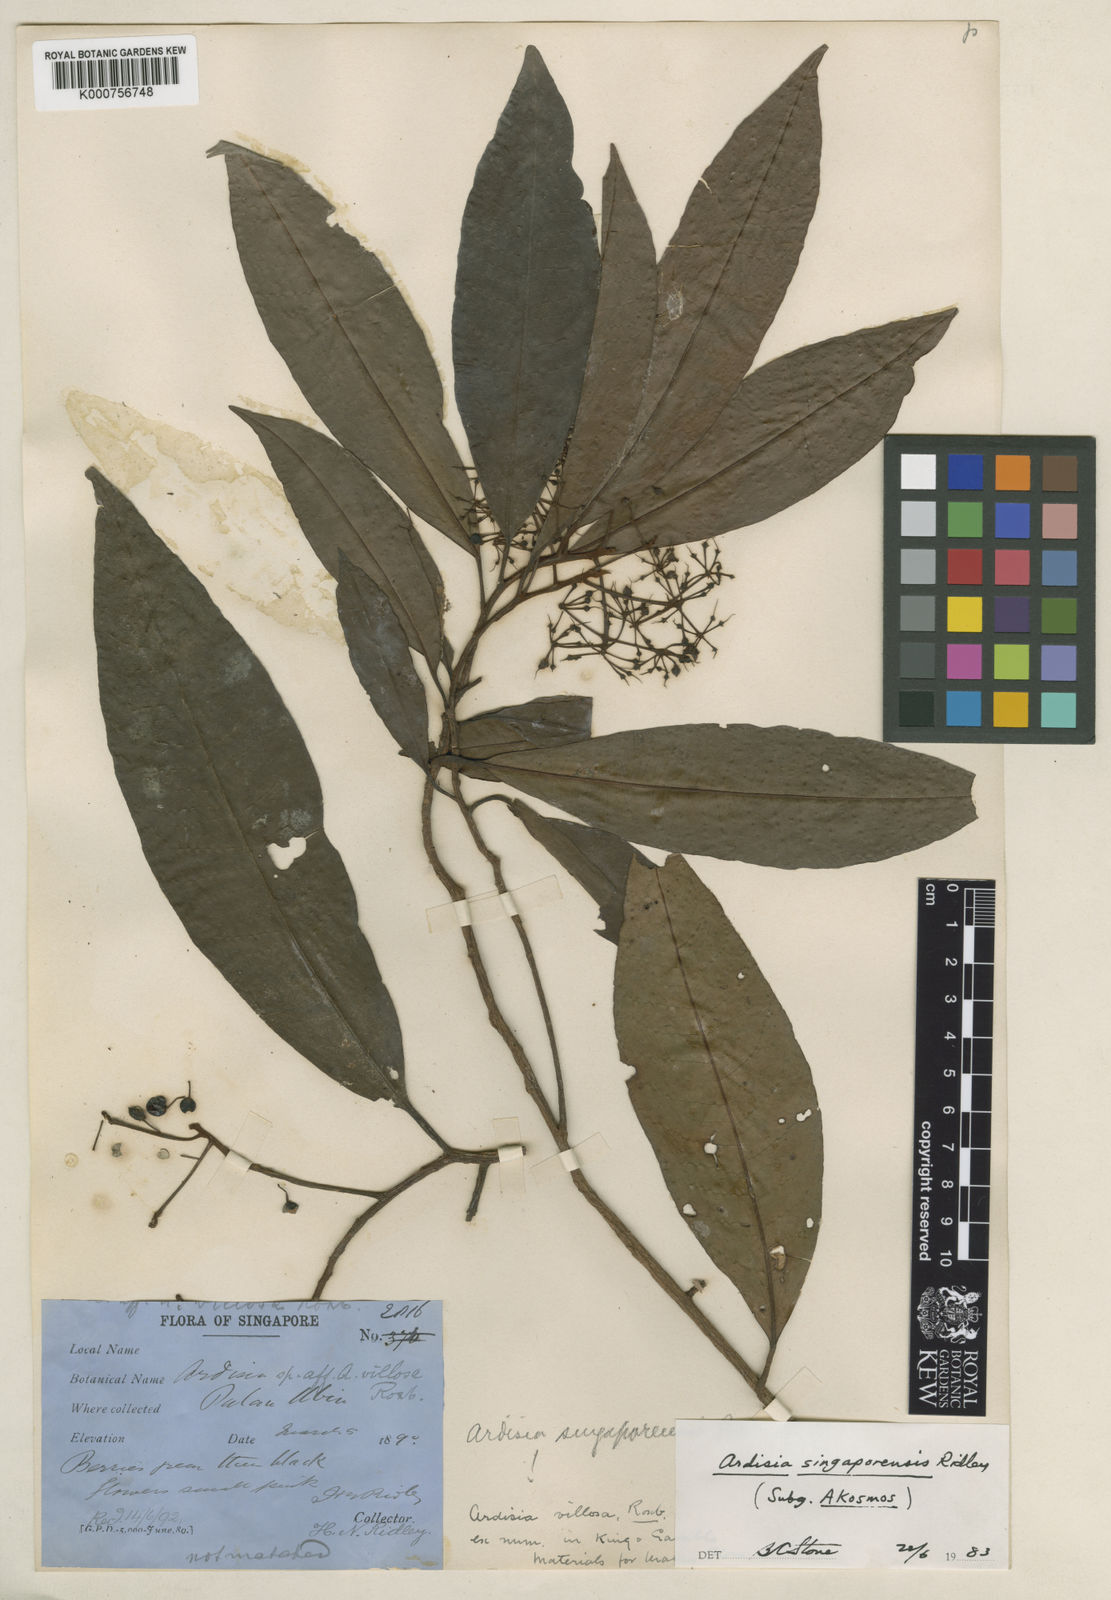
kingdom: Plantae
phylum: Tracheophyta
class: Magnoliopsida
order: Ericales
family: Primulaceae
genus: Ardisia
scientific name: Ardisia cymosa
